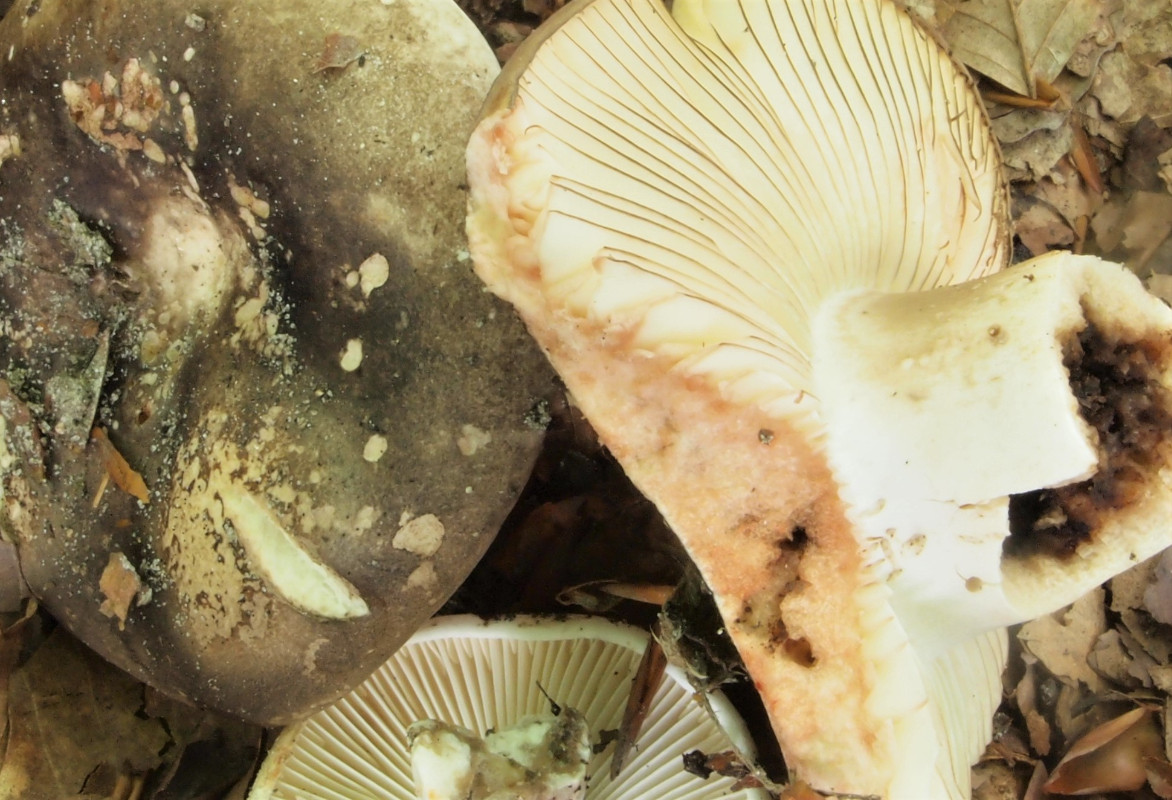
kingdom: Fungi
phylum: Basidiomycota
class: Agaricomycetes
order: Russulales
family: Russulaceae
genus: Russula
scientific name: Russula adusta
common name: sværtende skørhat
